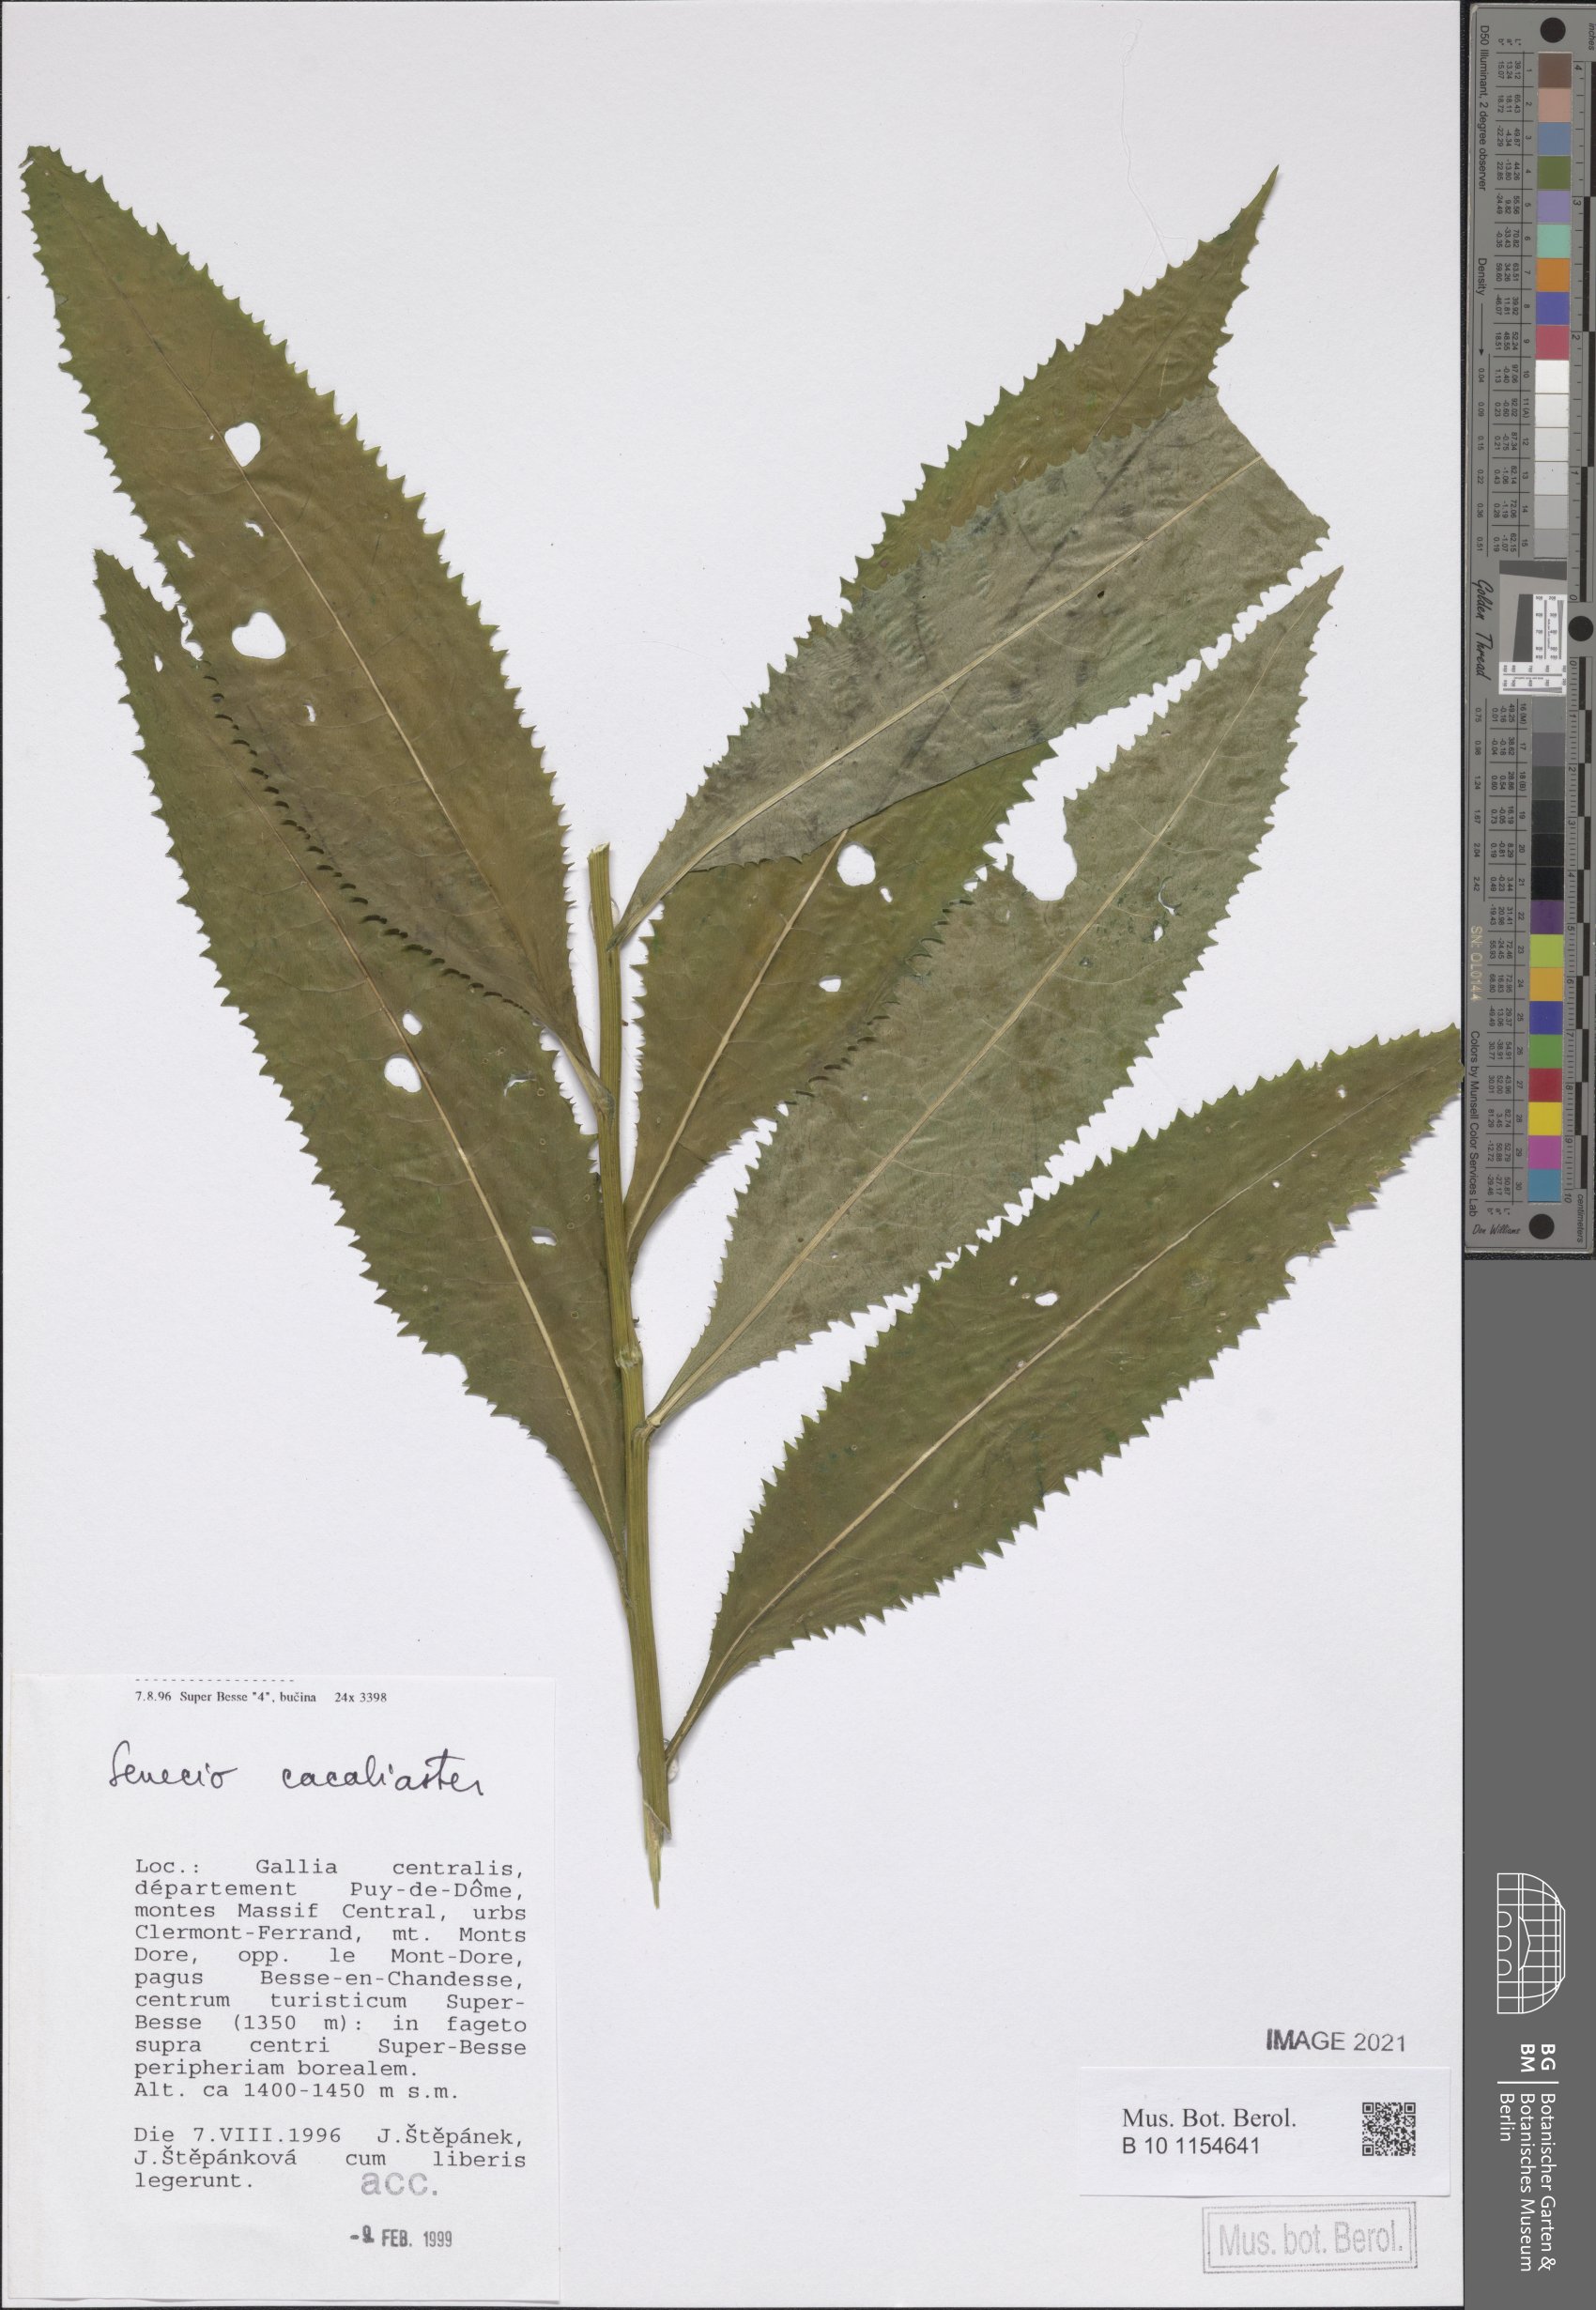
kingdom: Plantae
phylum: Tracheophyta
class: Magnoliopsida
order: Asterales
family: Asteraceae
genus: Senecio
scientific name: Senecio cacaliaster
